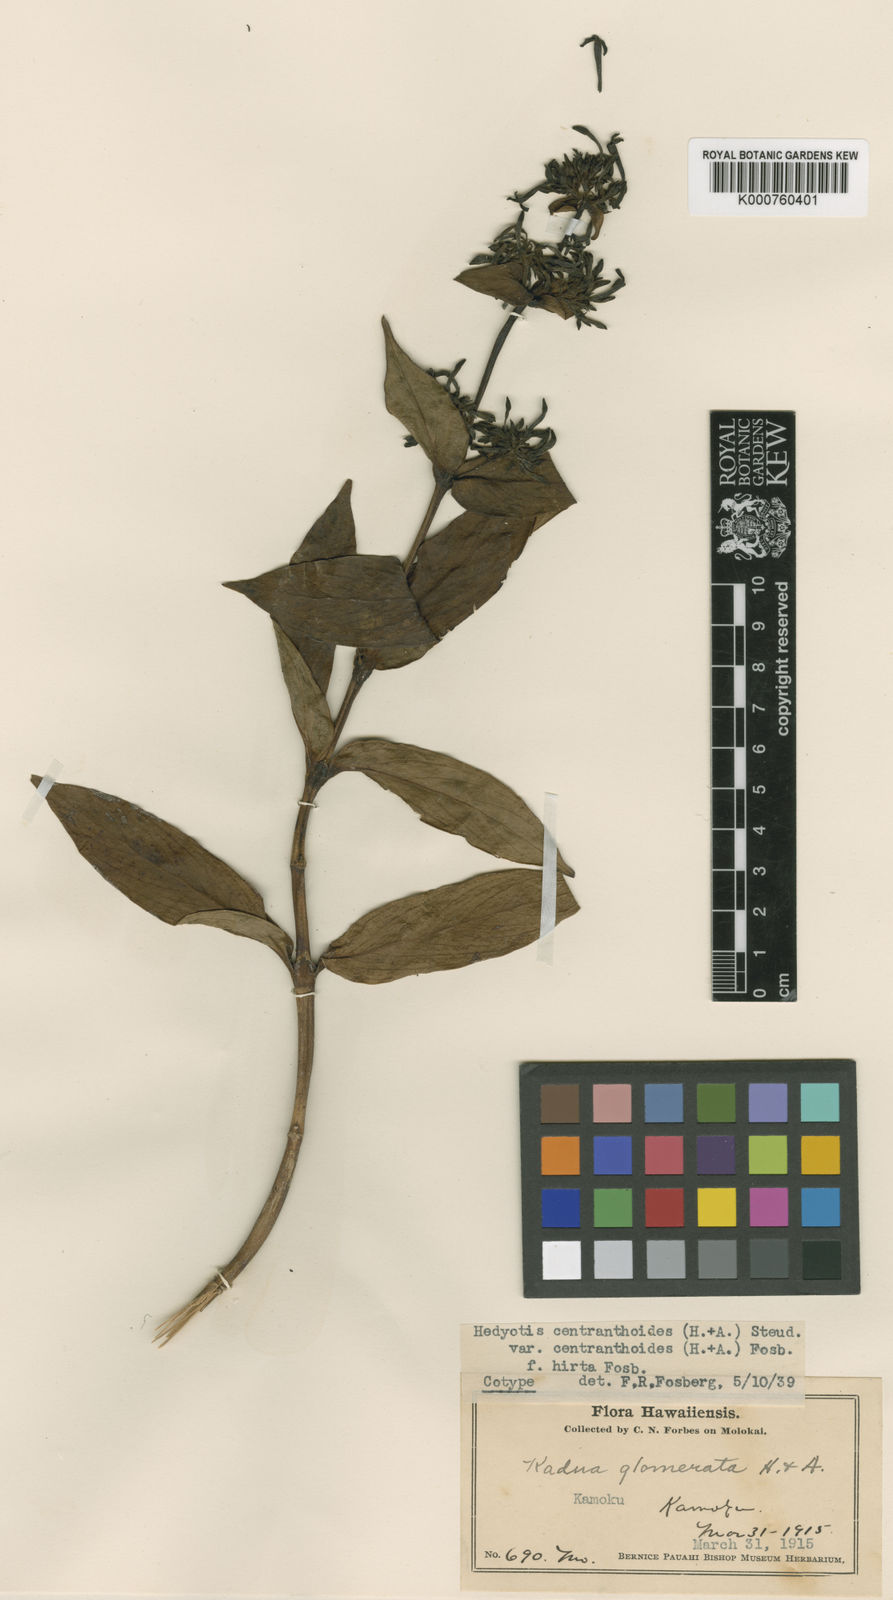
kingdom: Plantae
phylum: Tracheophyta
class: Magnoliopsida
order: Gentianales
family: Rubiaceae
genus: Kadua
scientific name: Kadua centranthoides
